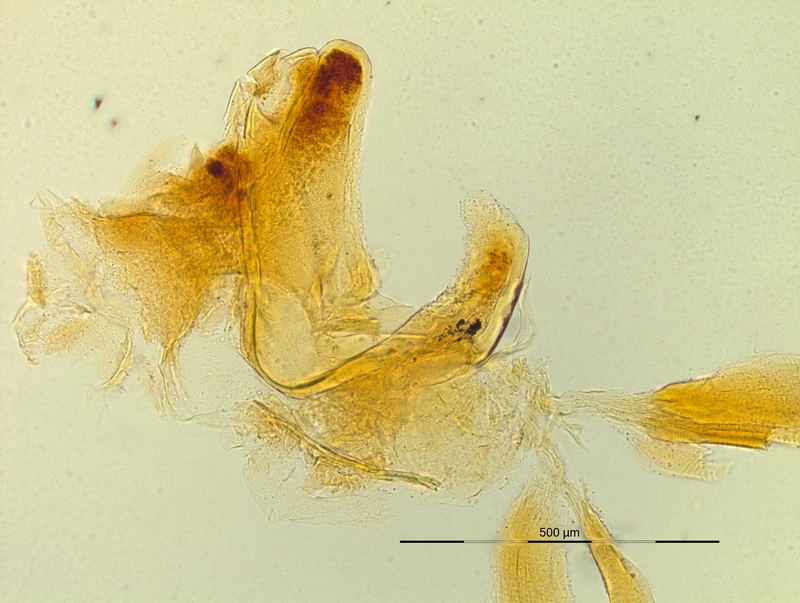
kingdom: Animalia
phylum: Arthropoda
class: Diplopoda
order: Chordeumatida
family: Craspedosomatidae
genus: Pyrgocyphosoma
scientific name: Pyrgocyphosoma savonense
